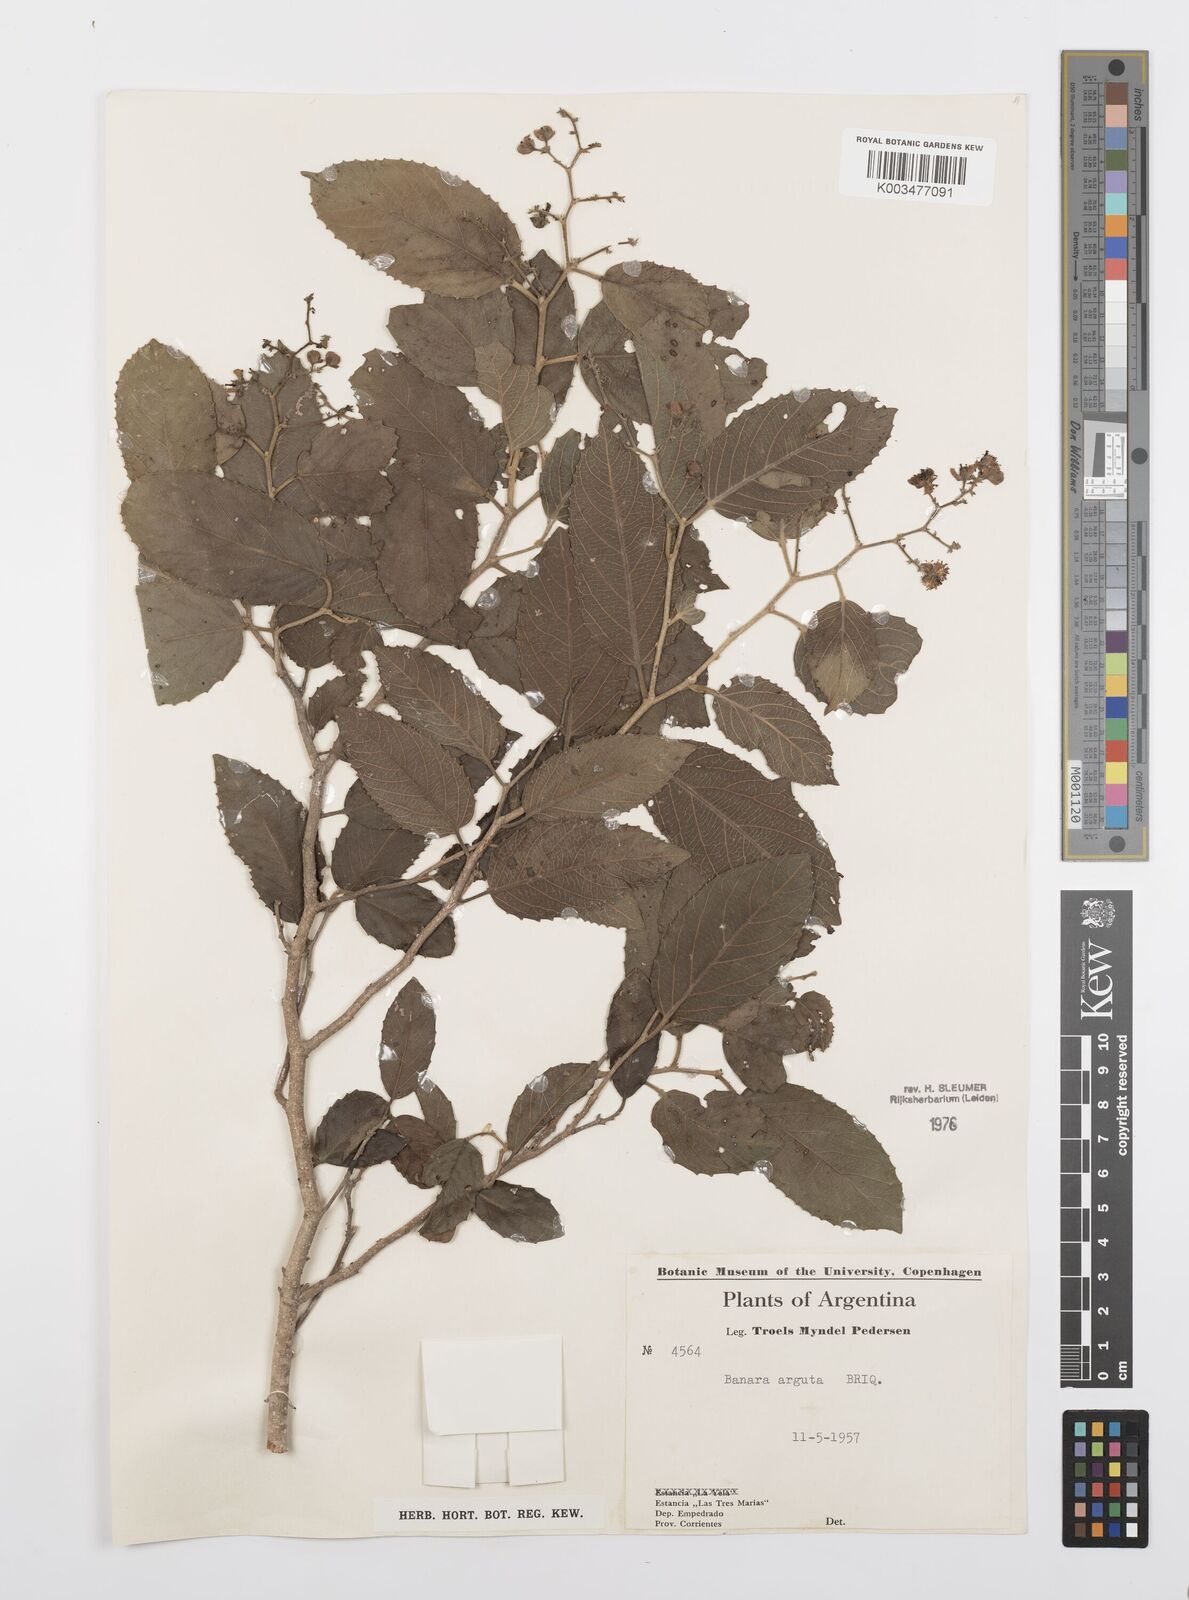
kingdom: Plantae
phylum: Tracheophyta
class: Magnoliopsida
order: Malpighiales
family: Salicaceae
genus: Banara
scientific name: Banara arguta
